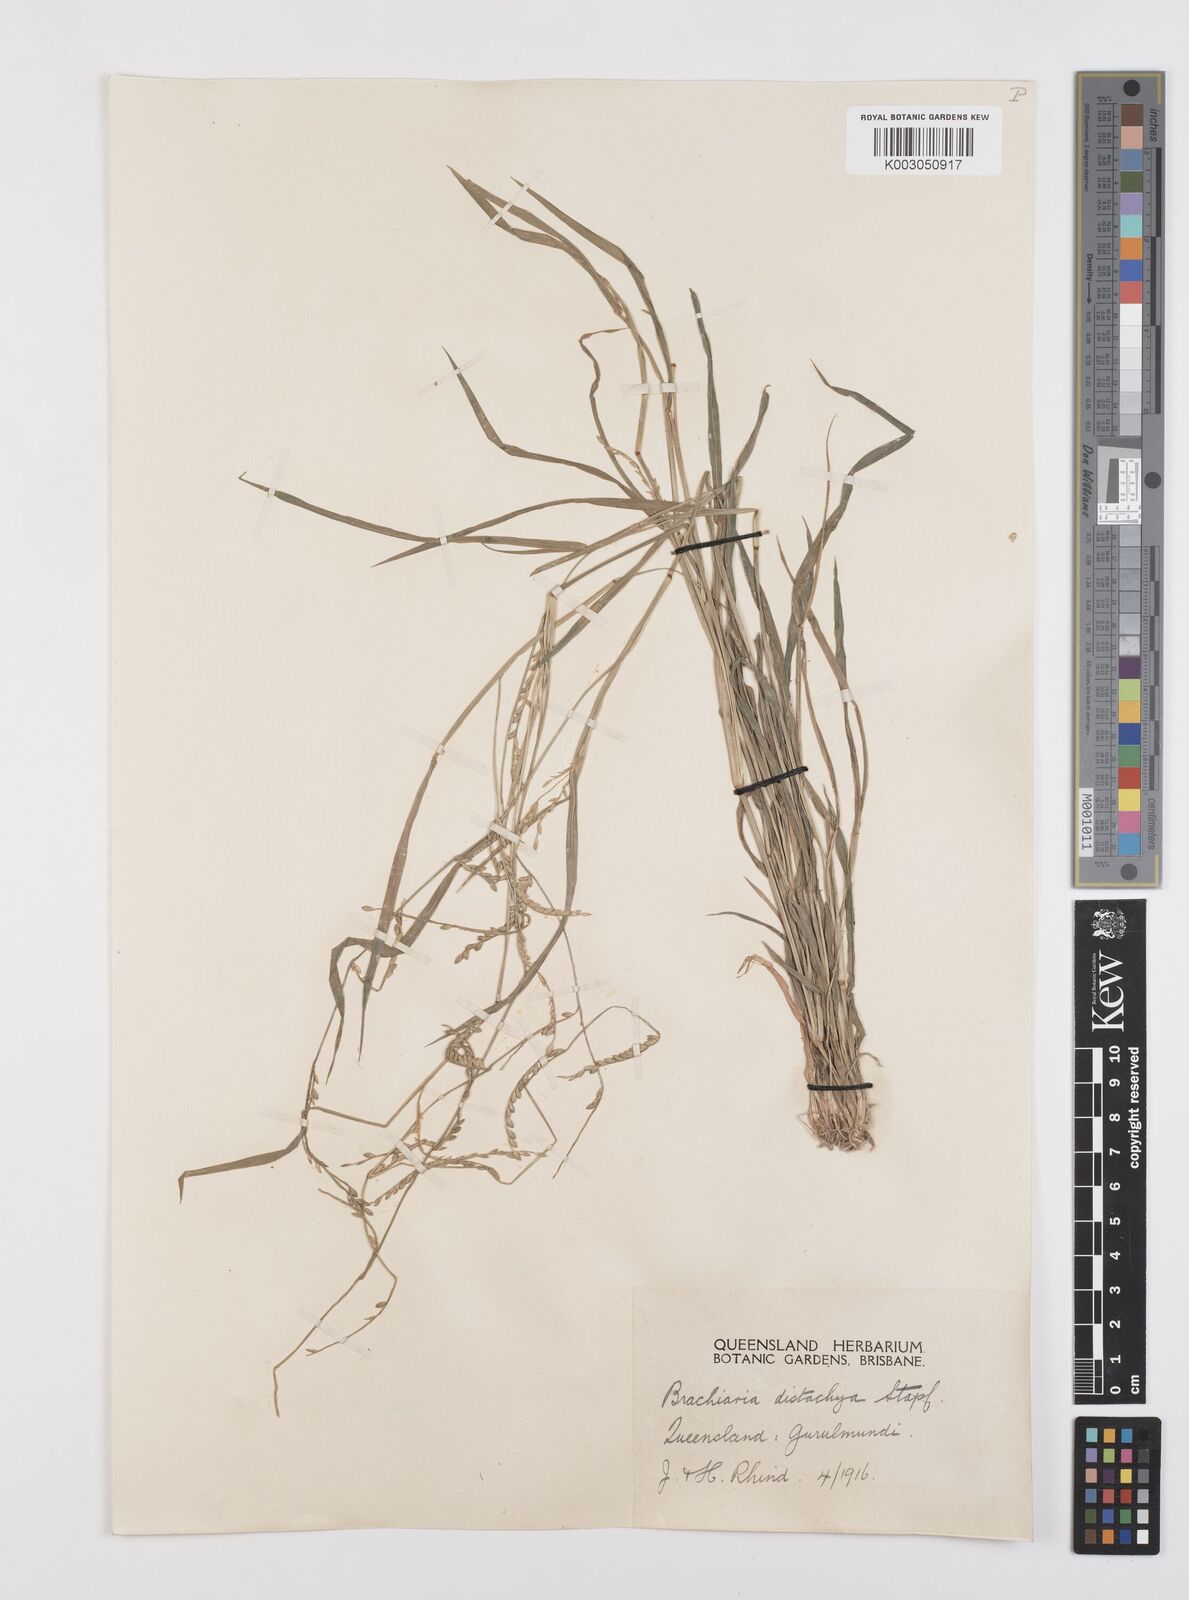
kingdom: Plantae
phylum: Tracheophyta
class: Liliopsida
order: Poales
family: Poaceae
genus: Urochloa
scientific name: Urochloa subquadripara
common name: Armgrass millet
